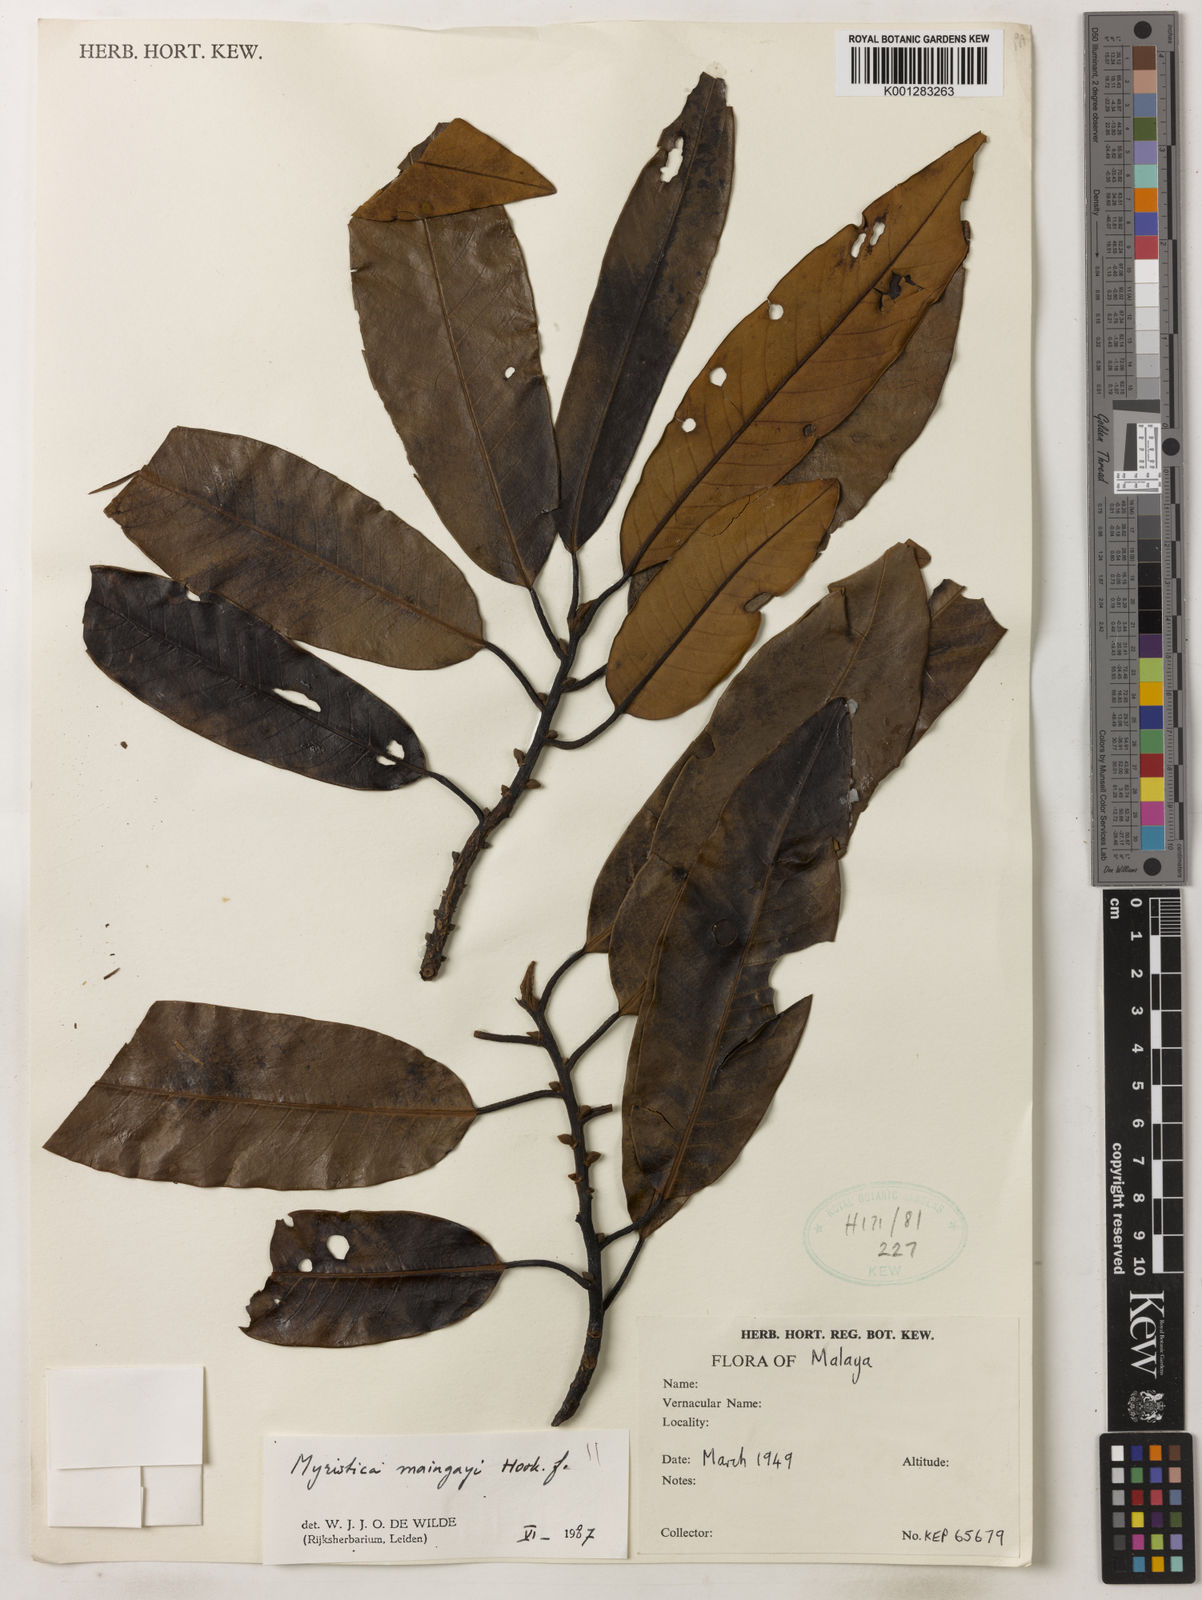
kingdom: Plantae
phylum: Tracheophyta
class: Magnoliopsida
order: Magnoliales
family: Myristicaceae
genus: Myristica
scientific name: Myristica maingayi
